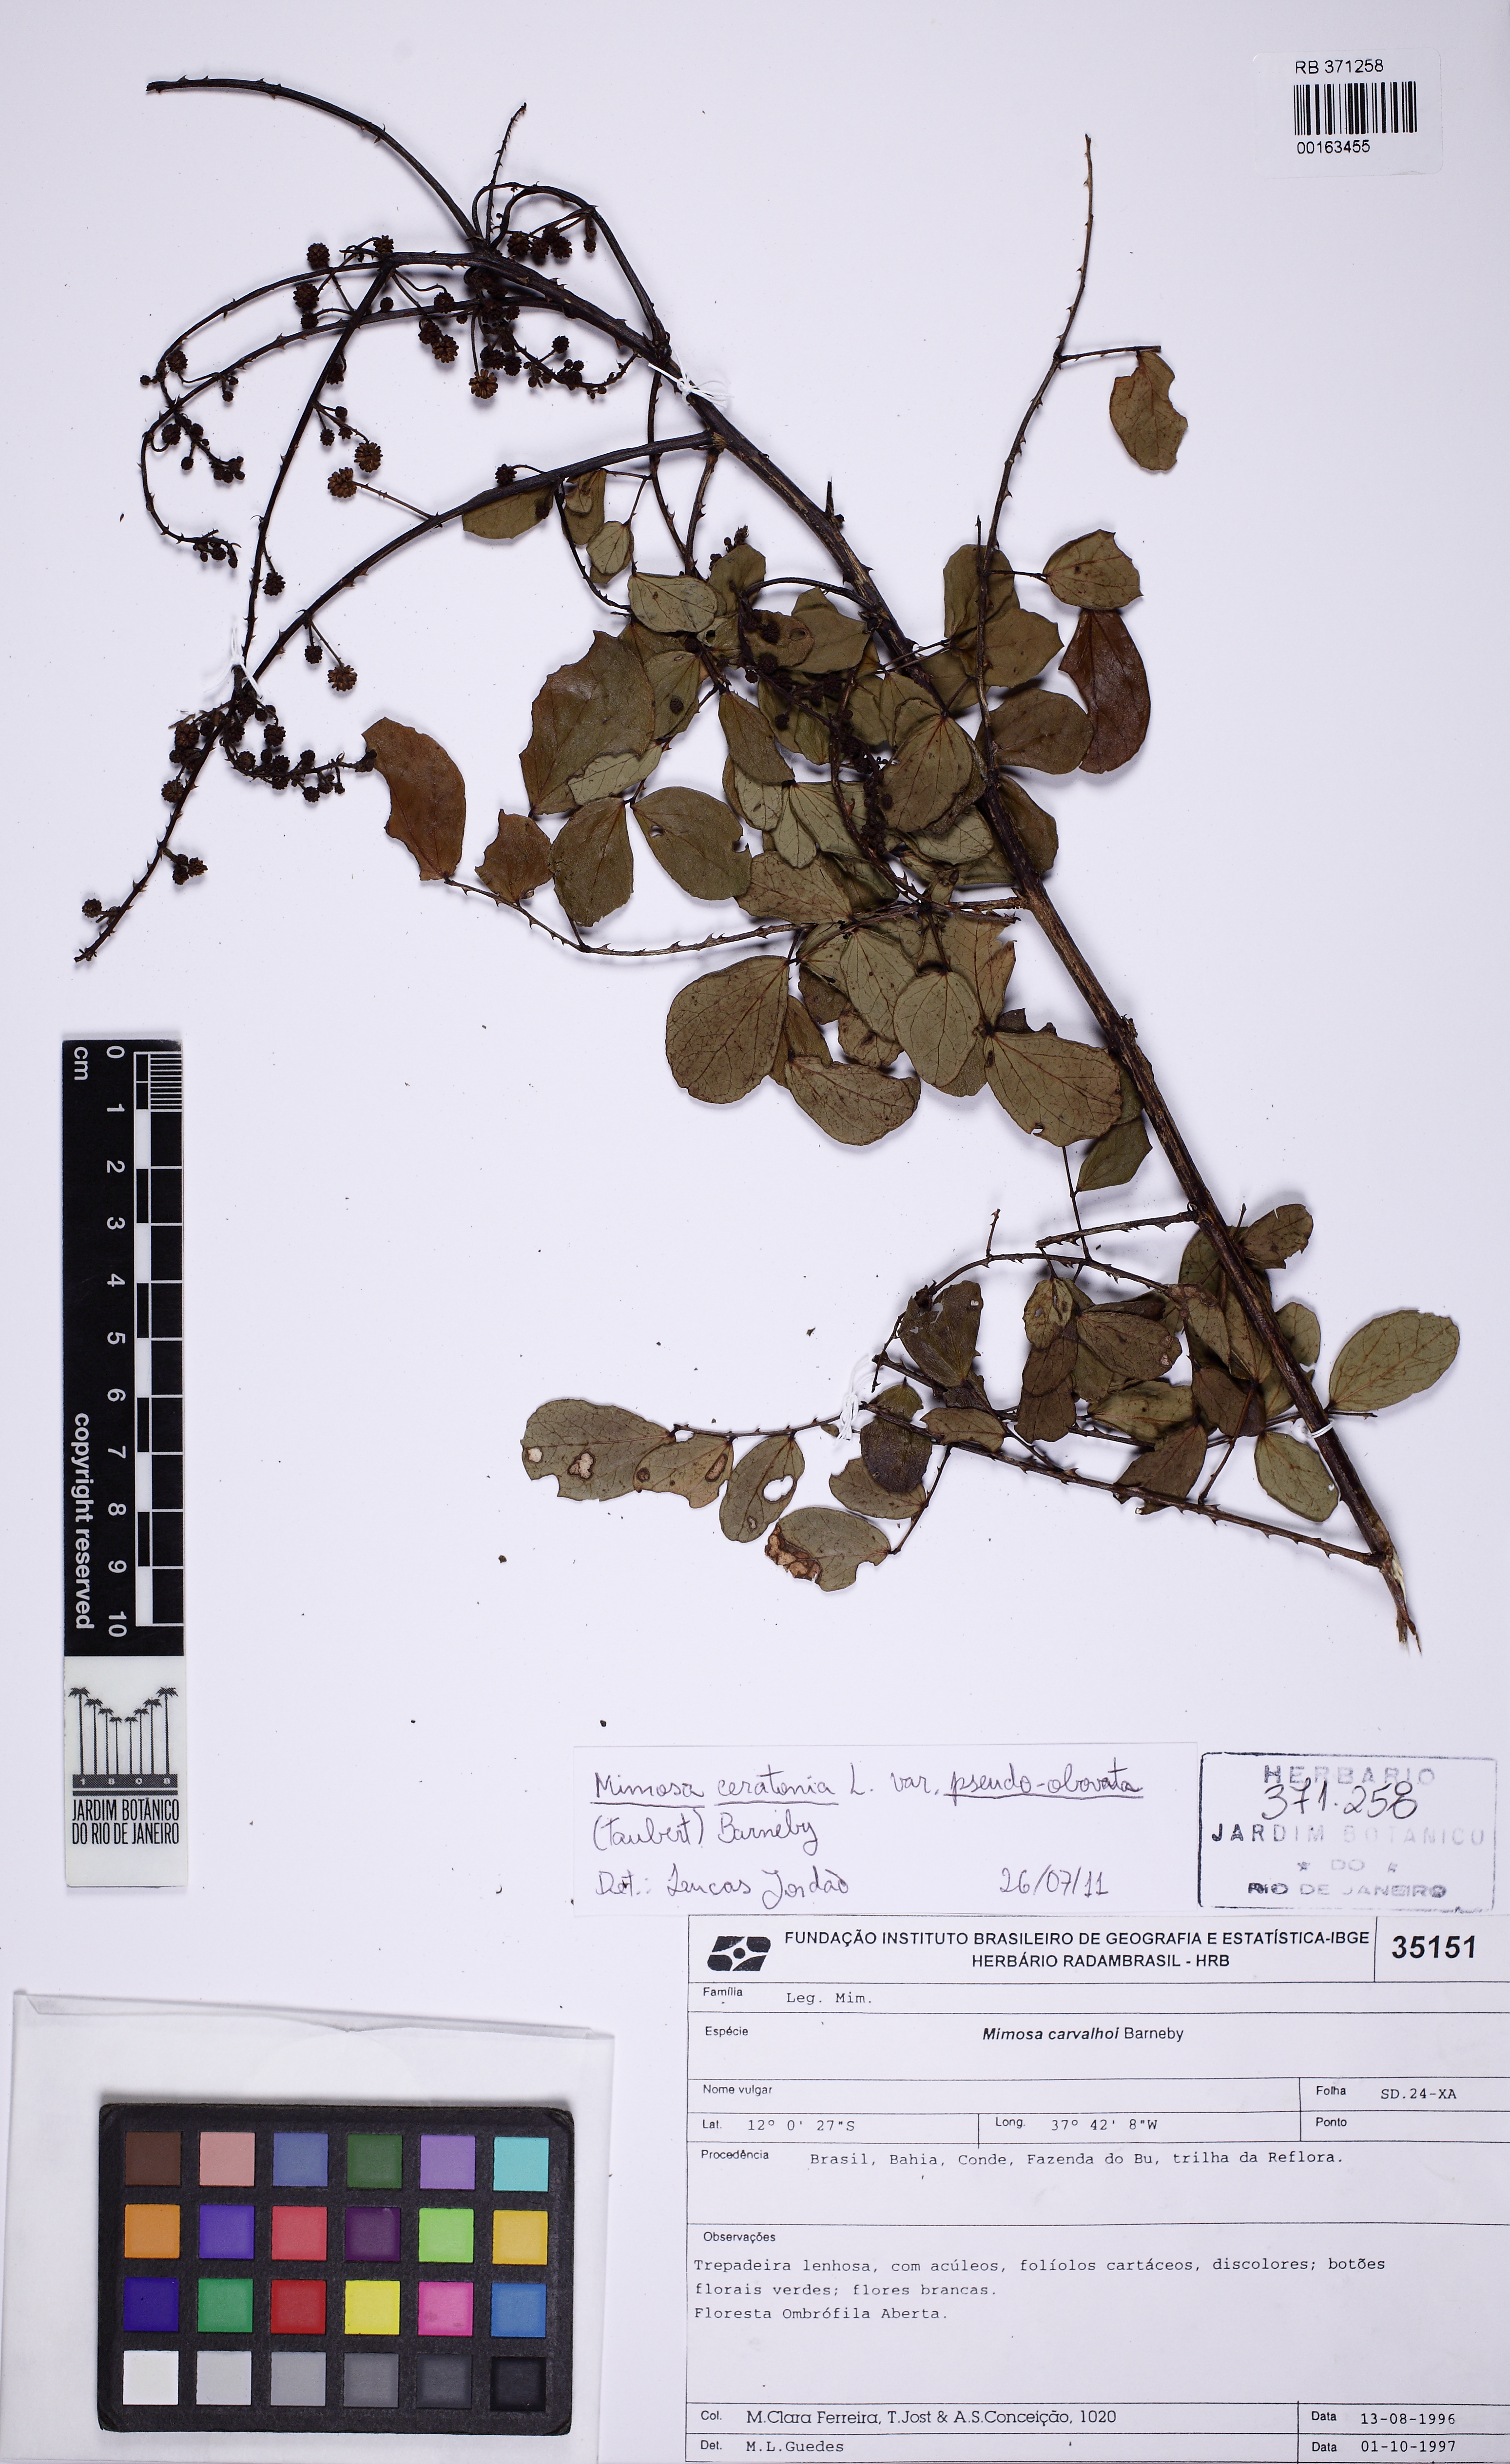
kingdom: Plantae
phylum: Tracheophyta
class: Magnoliopsida
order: Fabales
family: Fabaceae
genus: Mimosa
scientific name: Mimosa ceratonia
